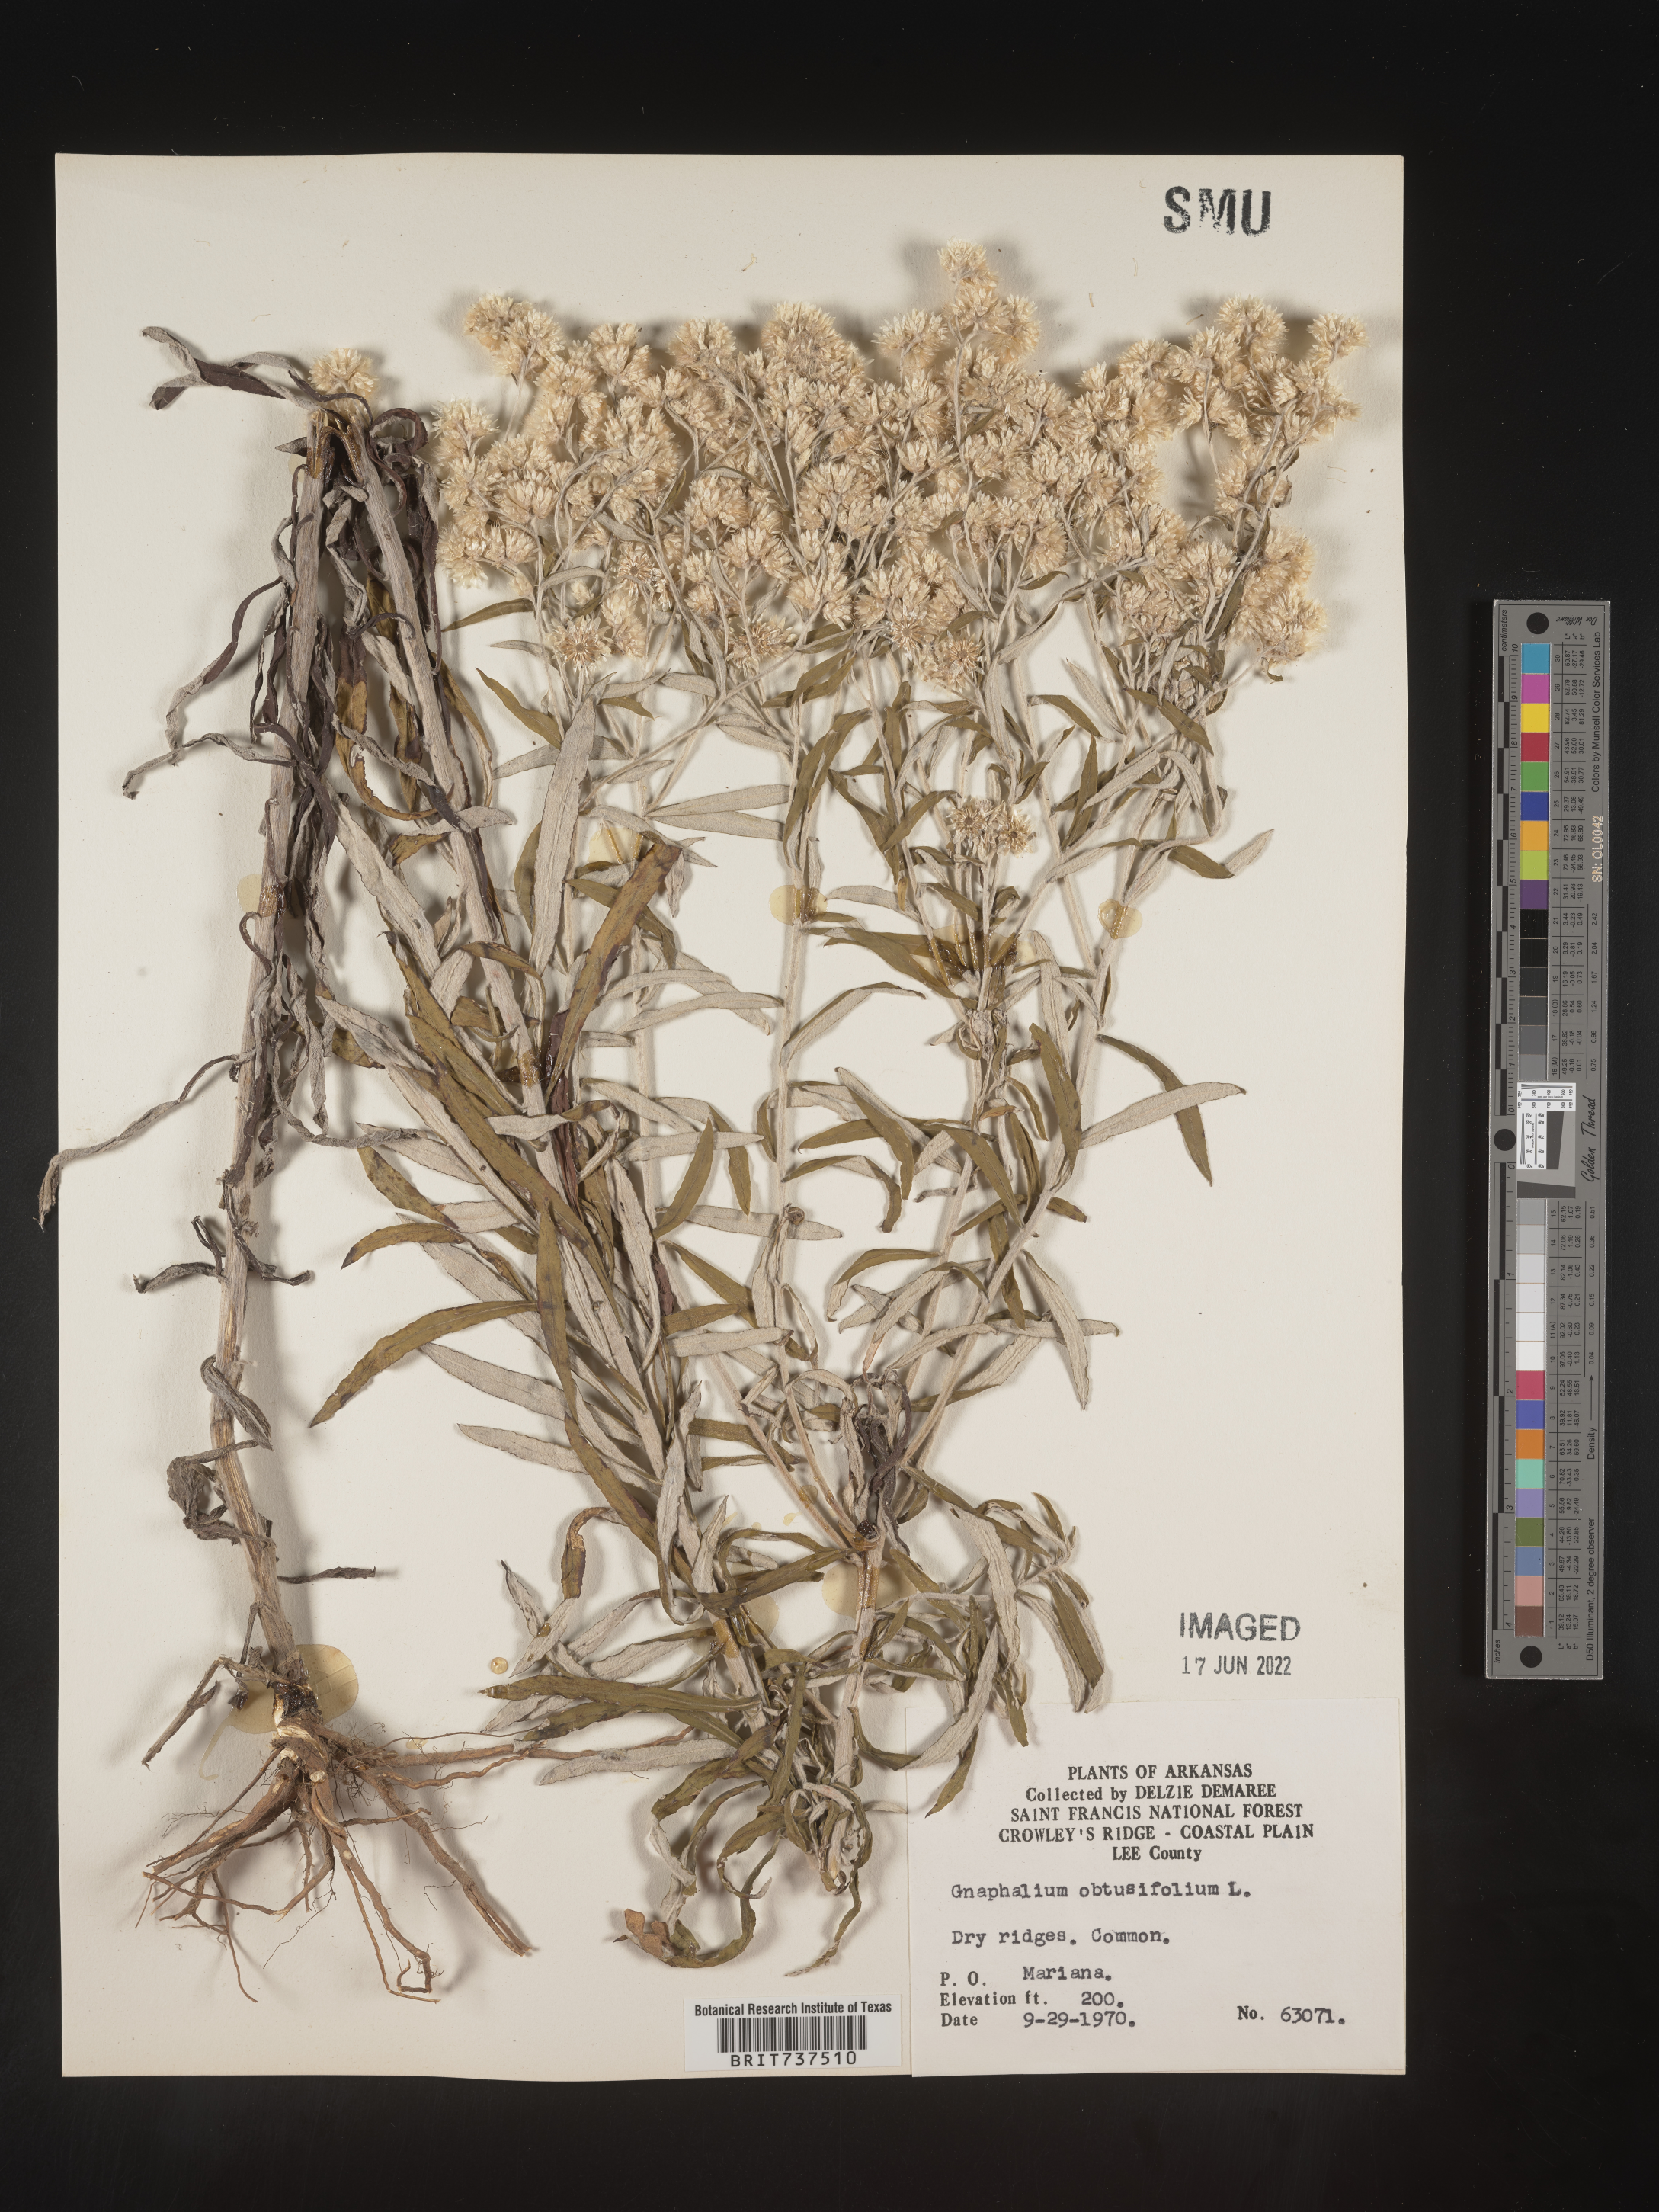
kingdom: Plantae
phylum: Tracheophyta
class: Magnoliopsida
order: Asterales
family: Asteraceae
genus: Pseudognaphalium
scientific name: Pseudognaphalium obtusifolium
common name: Eastern rabbit-tobacco
